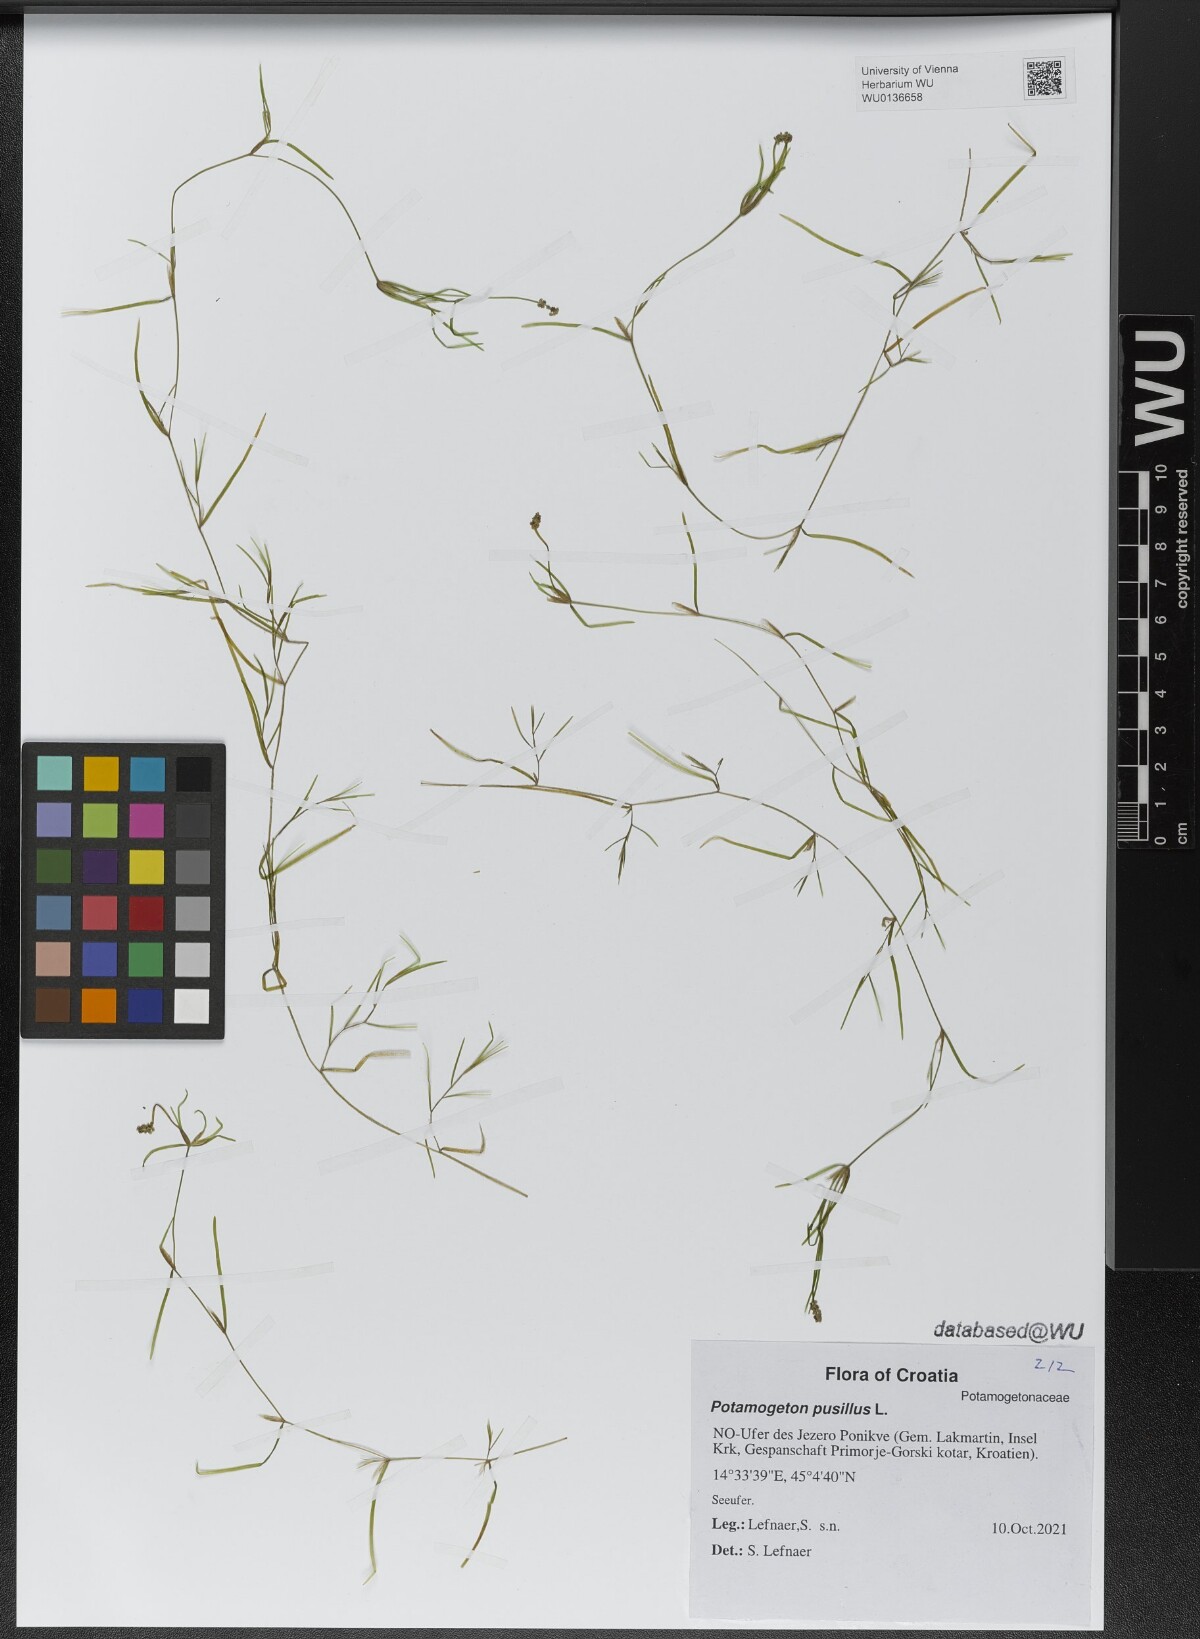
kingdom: Plantae
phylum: Tracheophyta
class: Liliopsida
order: Alismatales
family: Potamogetonaceae
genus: Potamogeton
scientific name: Potamogeton pusillus
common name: Lesser pondweed
